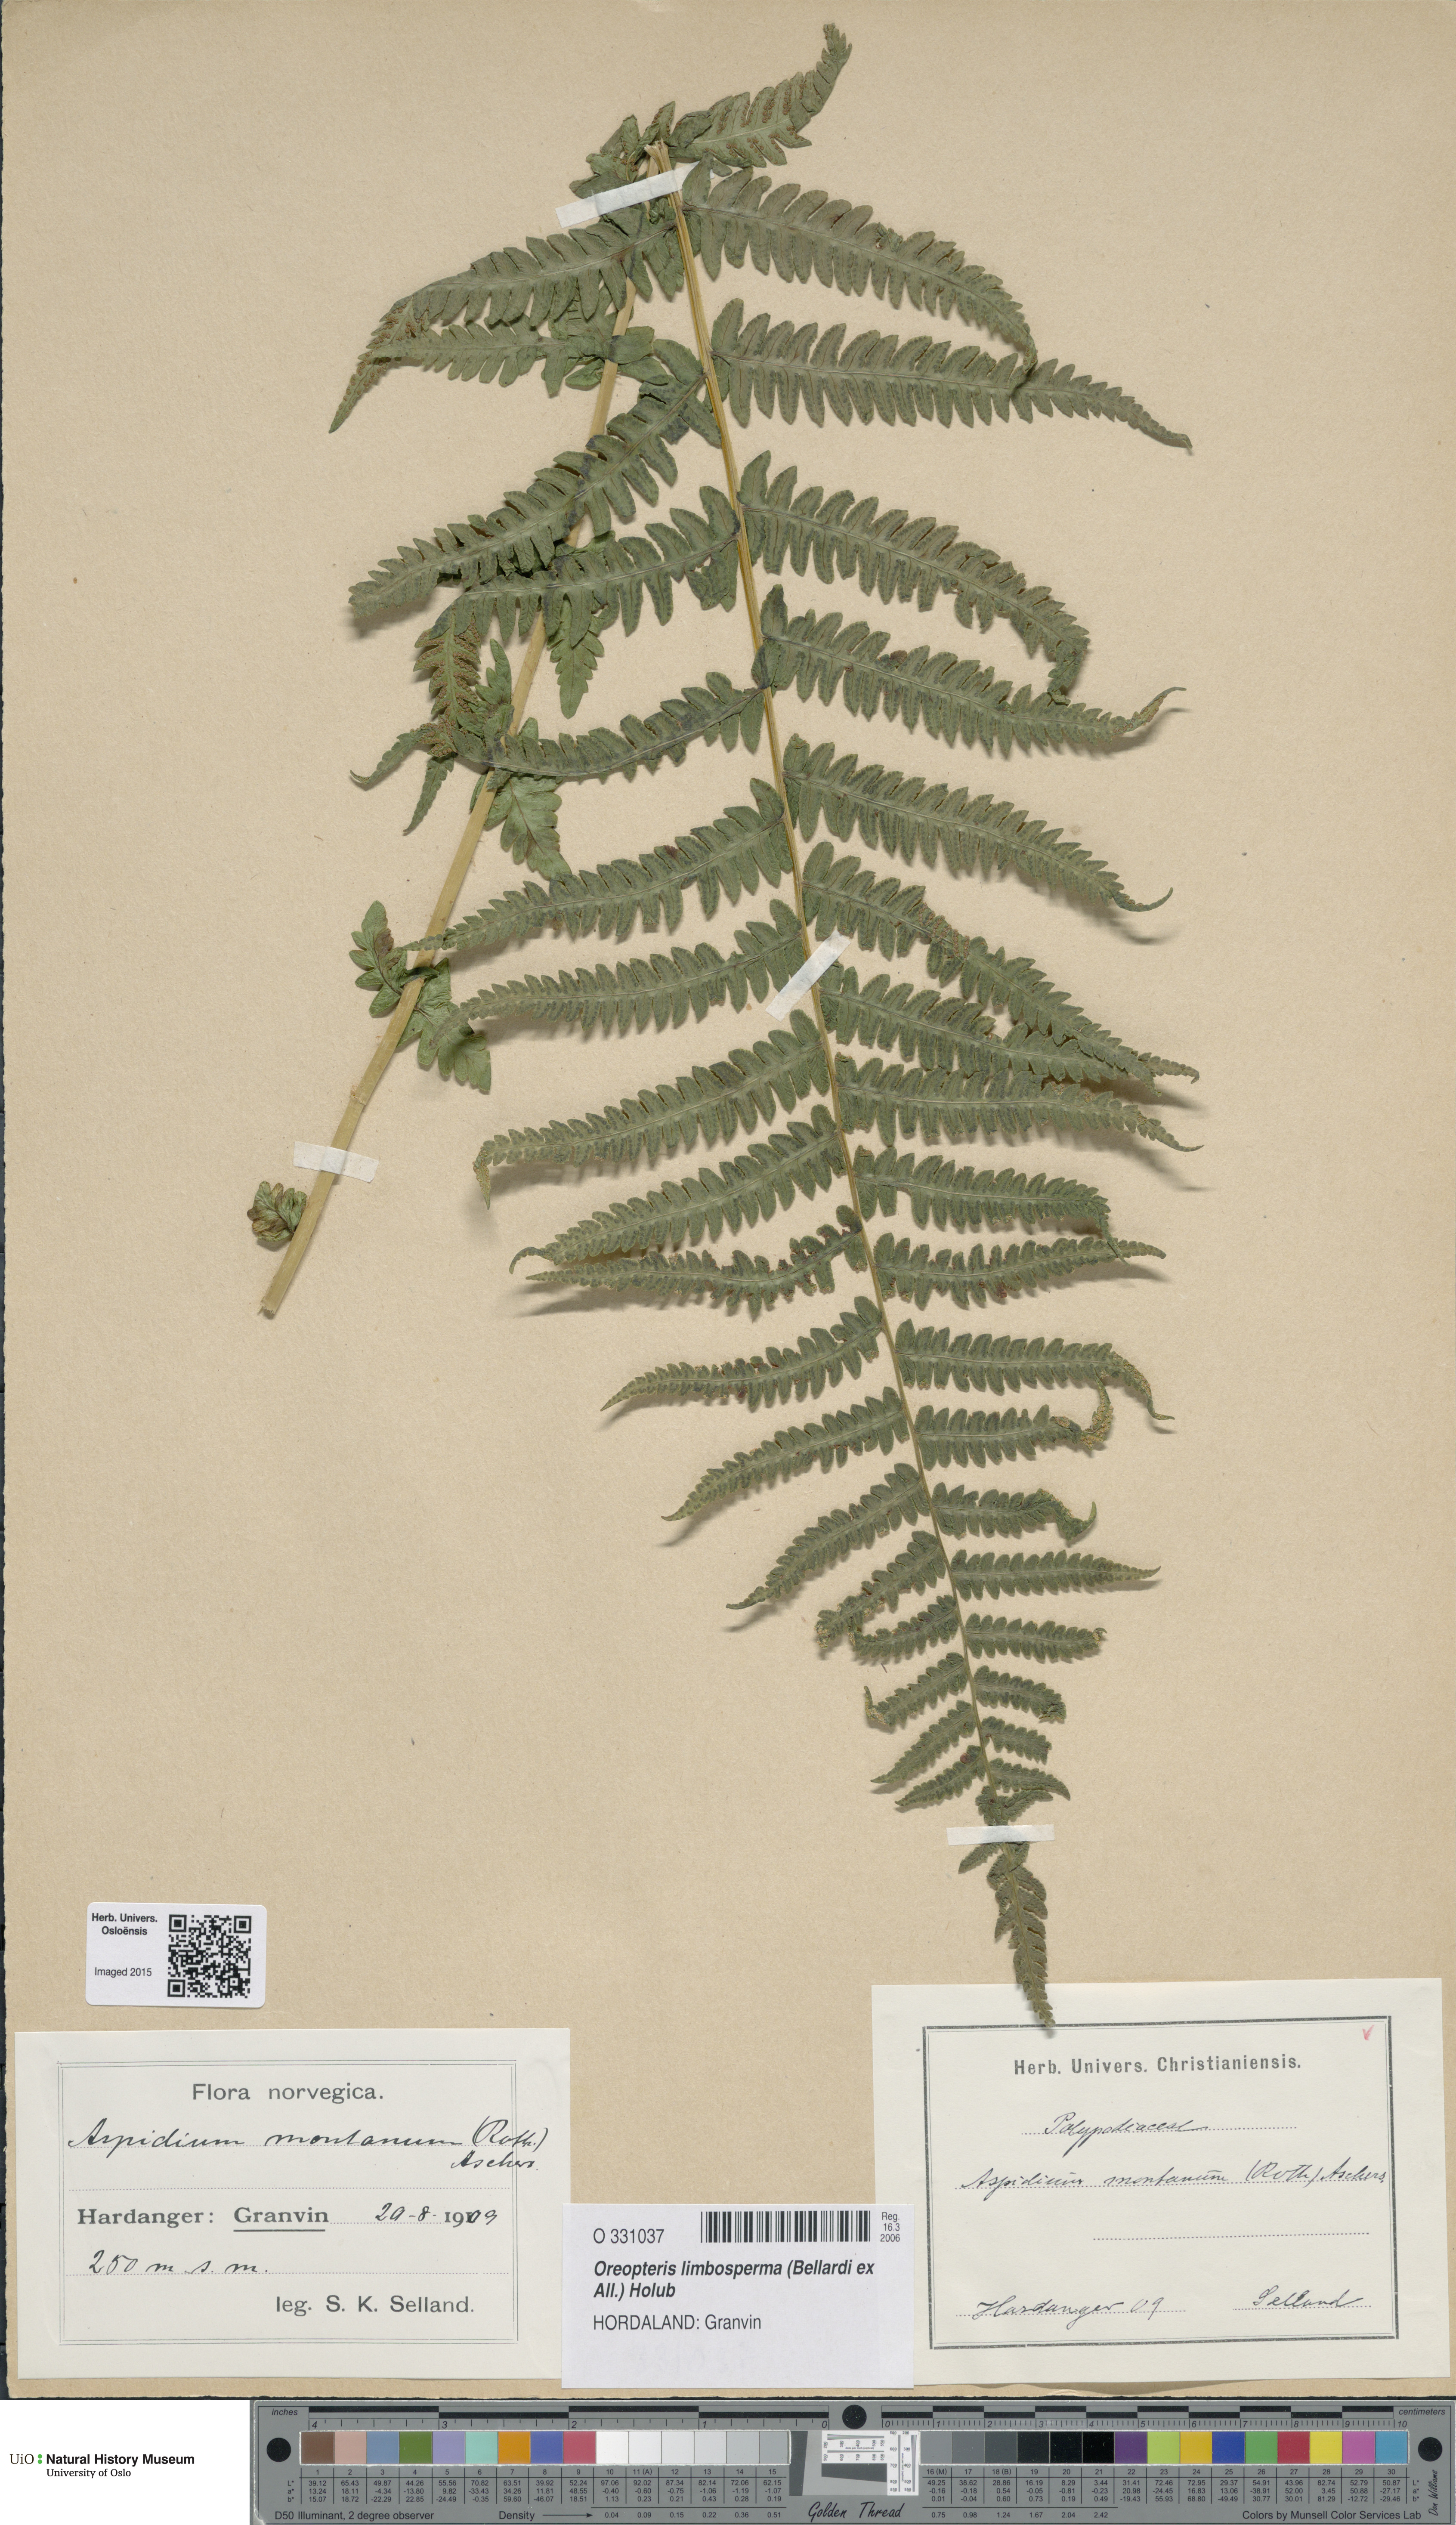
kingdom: Plantae
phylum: Tracheophyta
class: Polypodiopsida
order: Polypodiales
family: Thelypteridaceae
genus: Oreopteris
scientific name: Oreopteris limbosperma
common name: Lemon-scented fern
